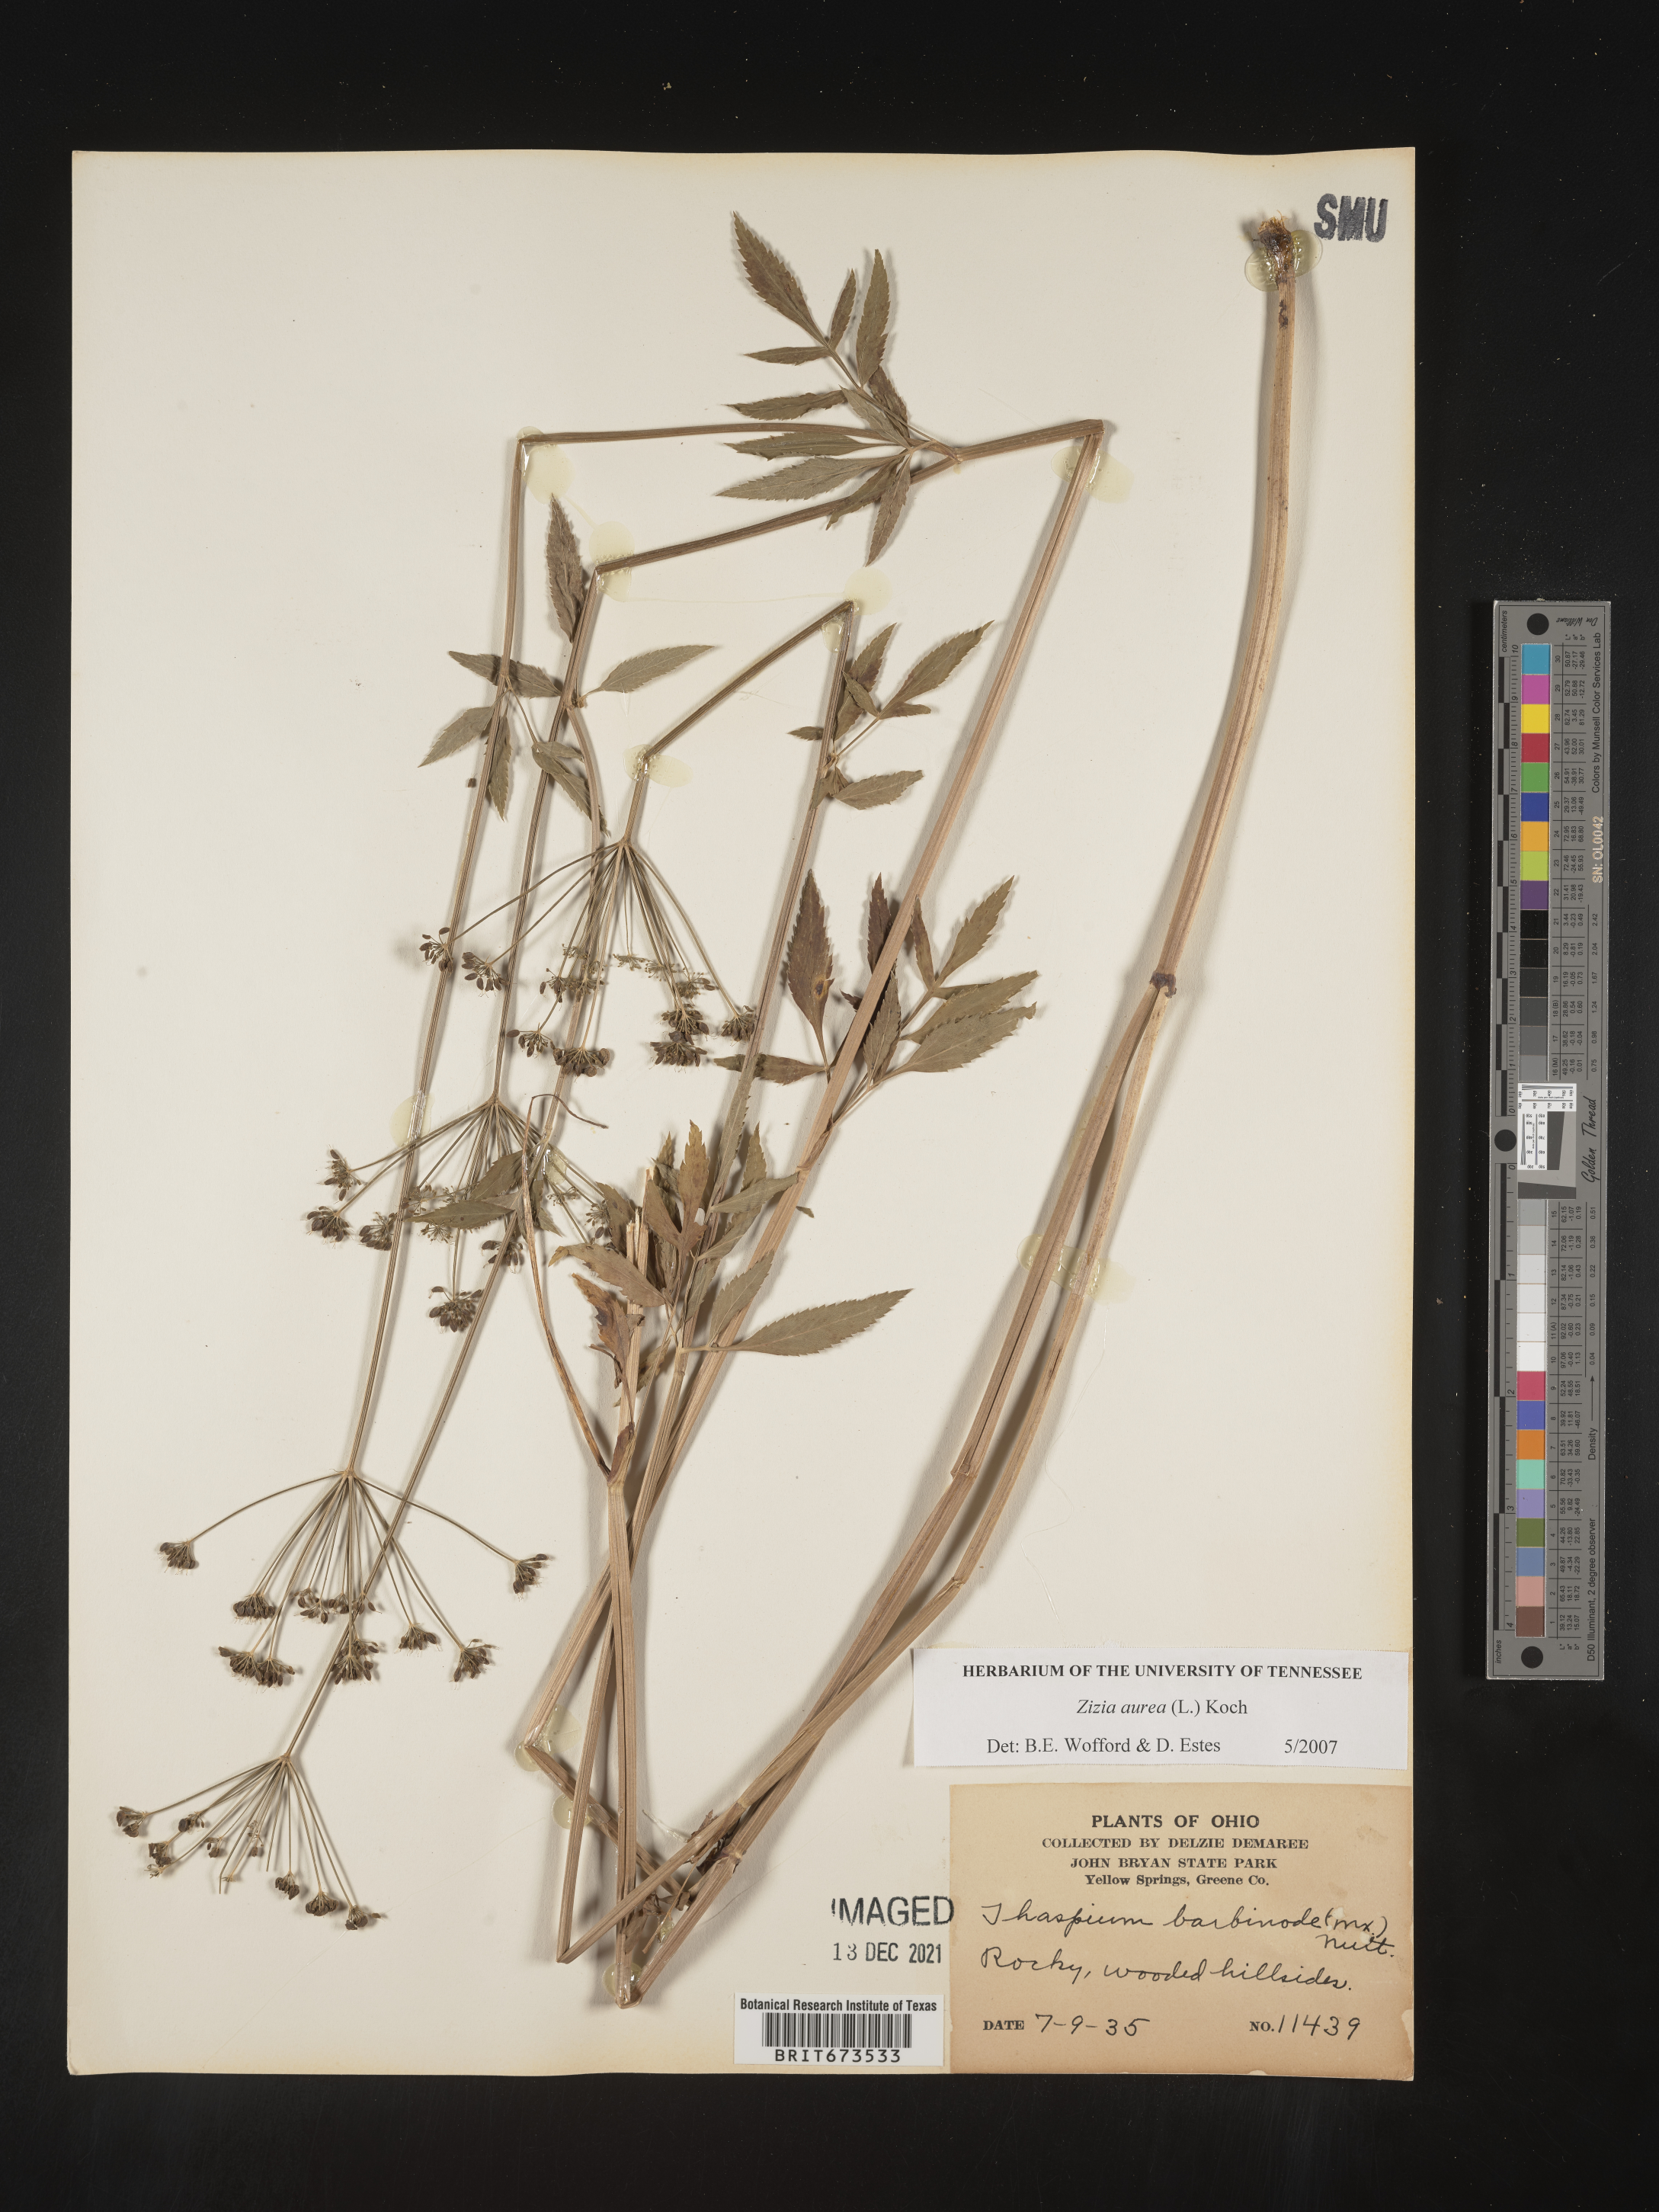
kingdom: Plantae
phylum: Tracheophyta
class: Magnoliopsida
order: Apiales
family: Apiaceae
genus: Zizia
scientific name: Zizia aurea
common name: Golden alexanders
